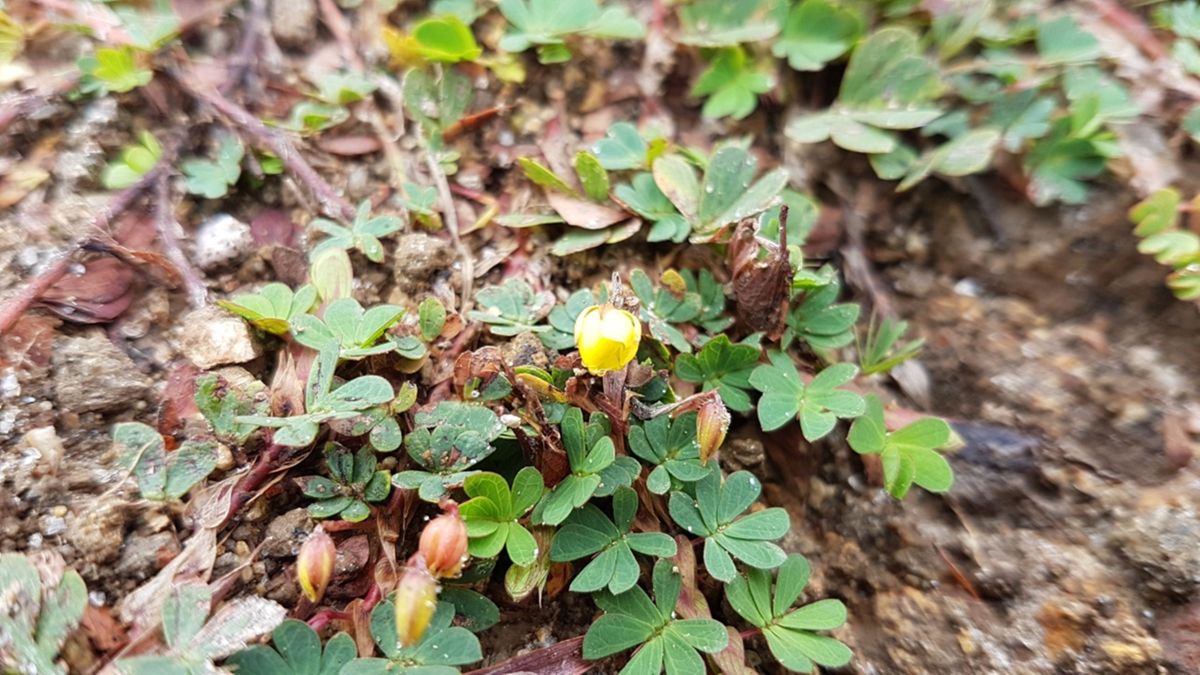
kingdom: Plantae
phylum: Tracheophyta
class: Magnoliopsida
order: Fabales
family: Fabaceae
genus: Chamaecrista
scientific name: Chamaecrista kunthiana
